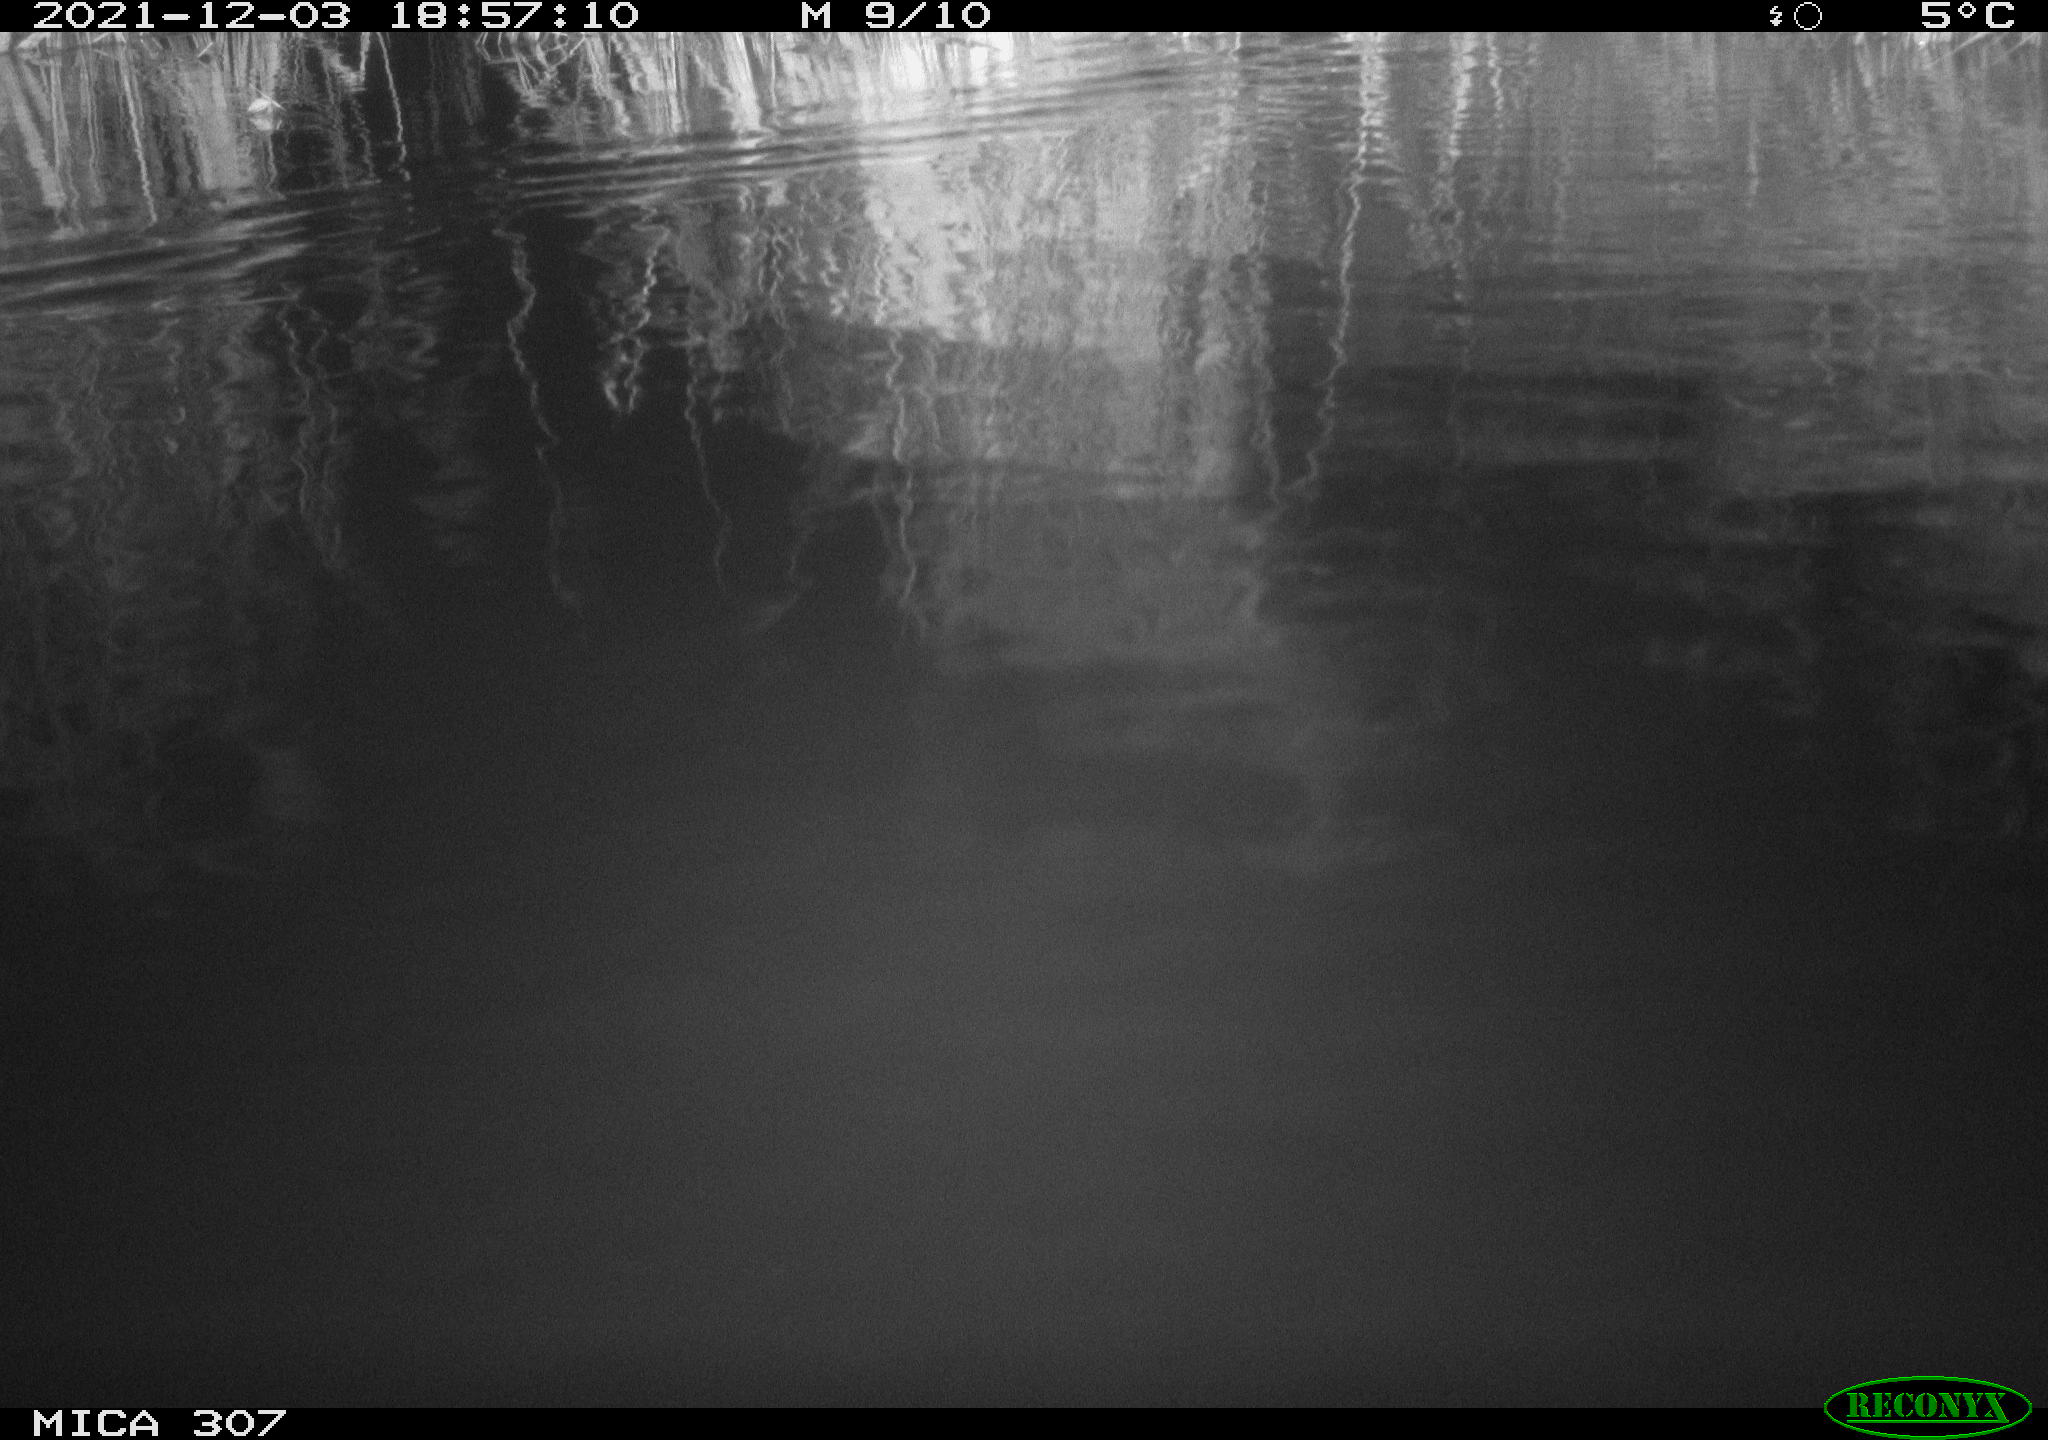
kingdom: Animalia
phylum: Chordata
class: Mammalia
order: Rodentia
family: Cricetidae
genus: Ondatra
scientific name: Ondatra zibethicus
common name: Muskrat
